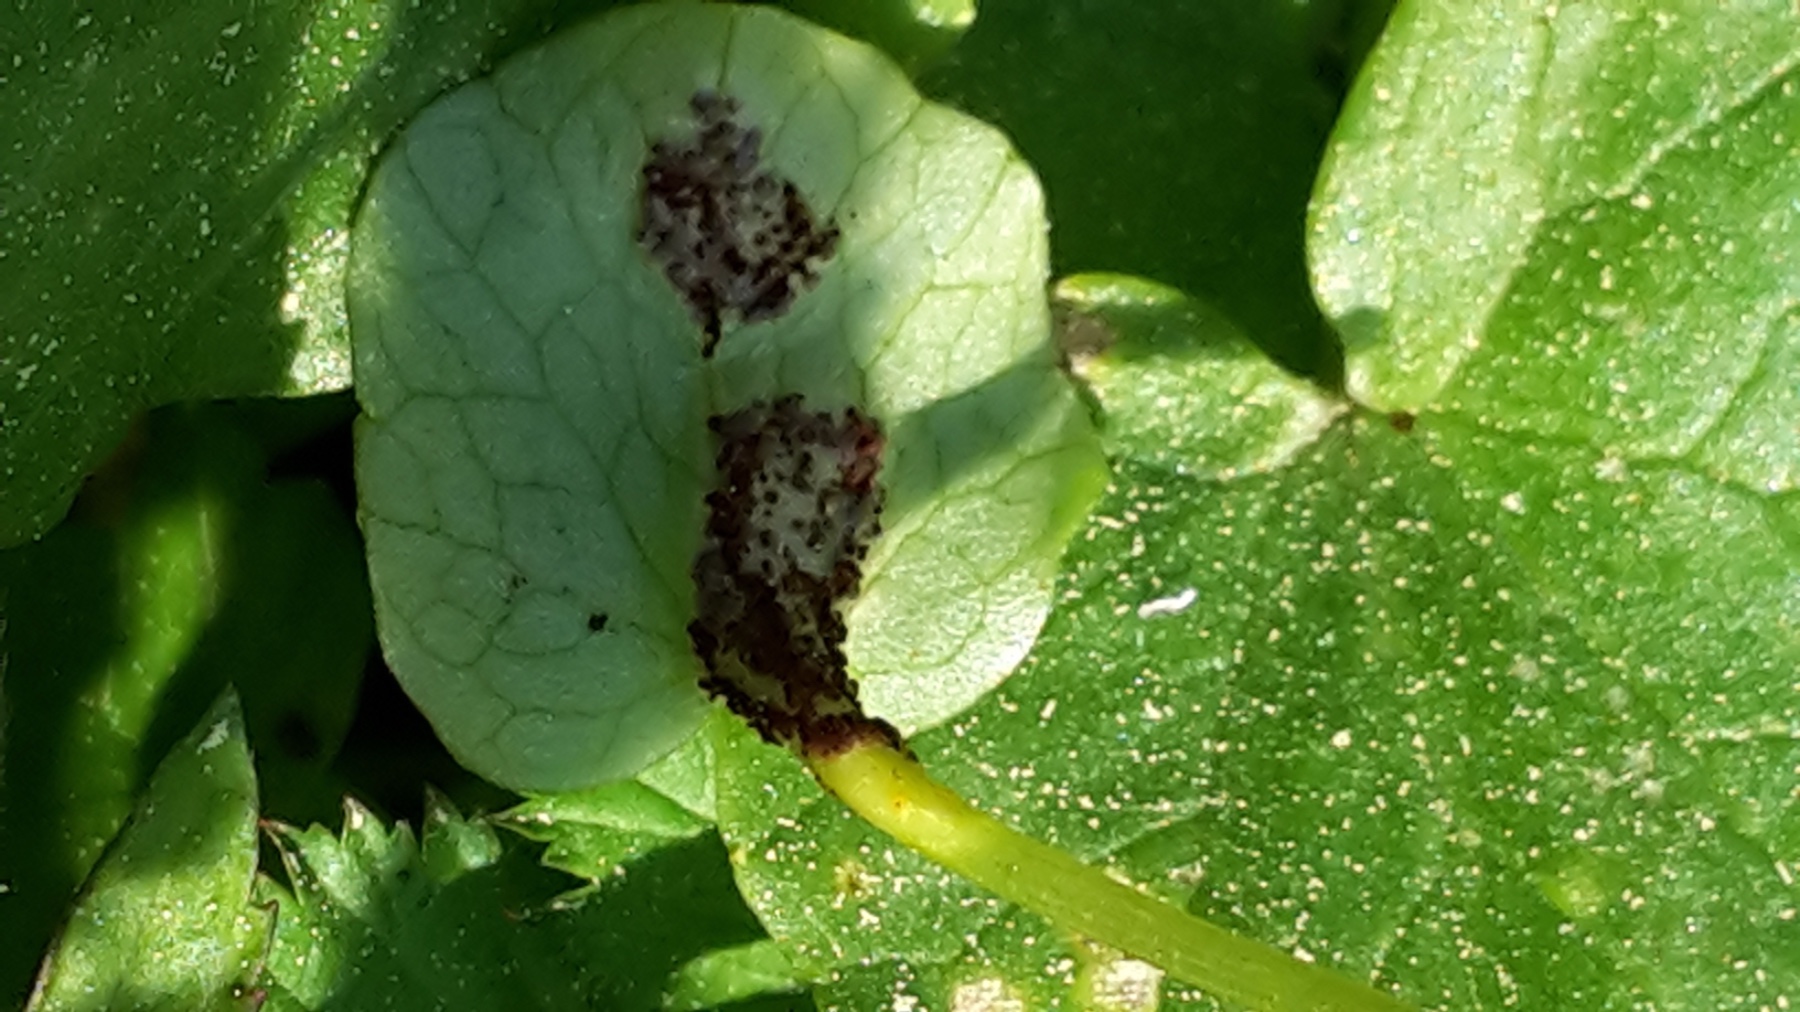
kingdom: Fungi
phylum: Basidiomycota
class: Pucciniomycetes
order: Pucciniales
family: Pucciniaceae
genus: Uromyces
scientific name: Uromyces ficariae
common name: vorterod-encellerust
